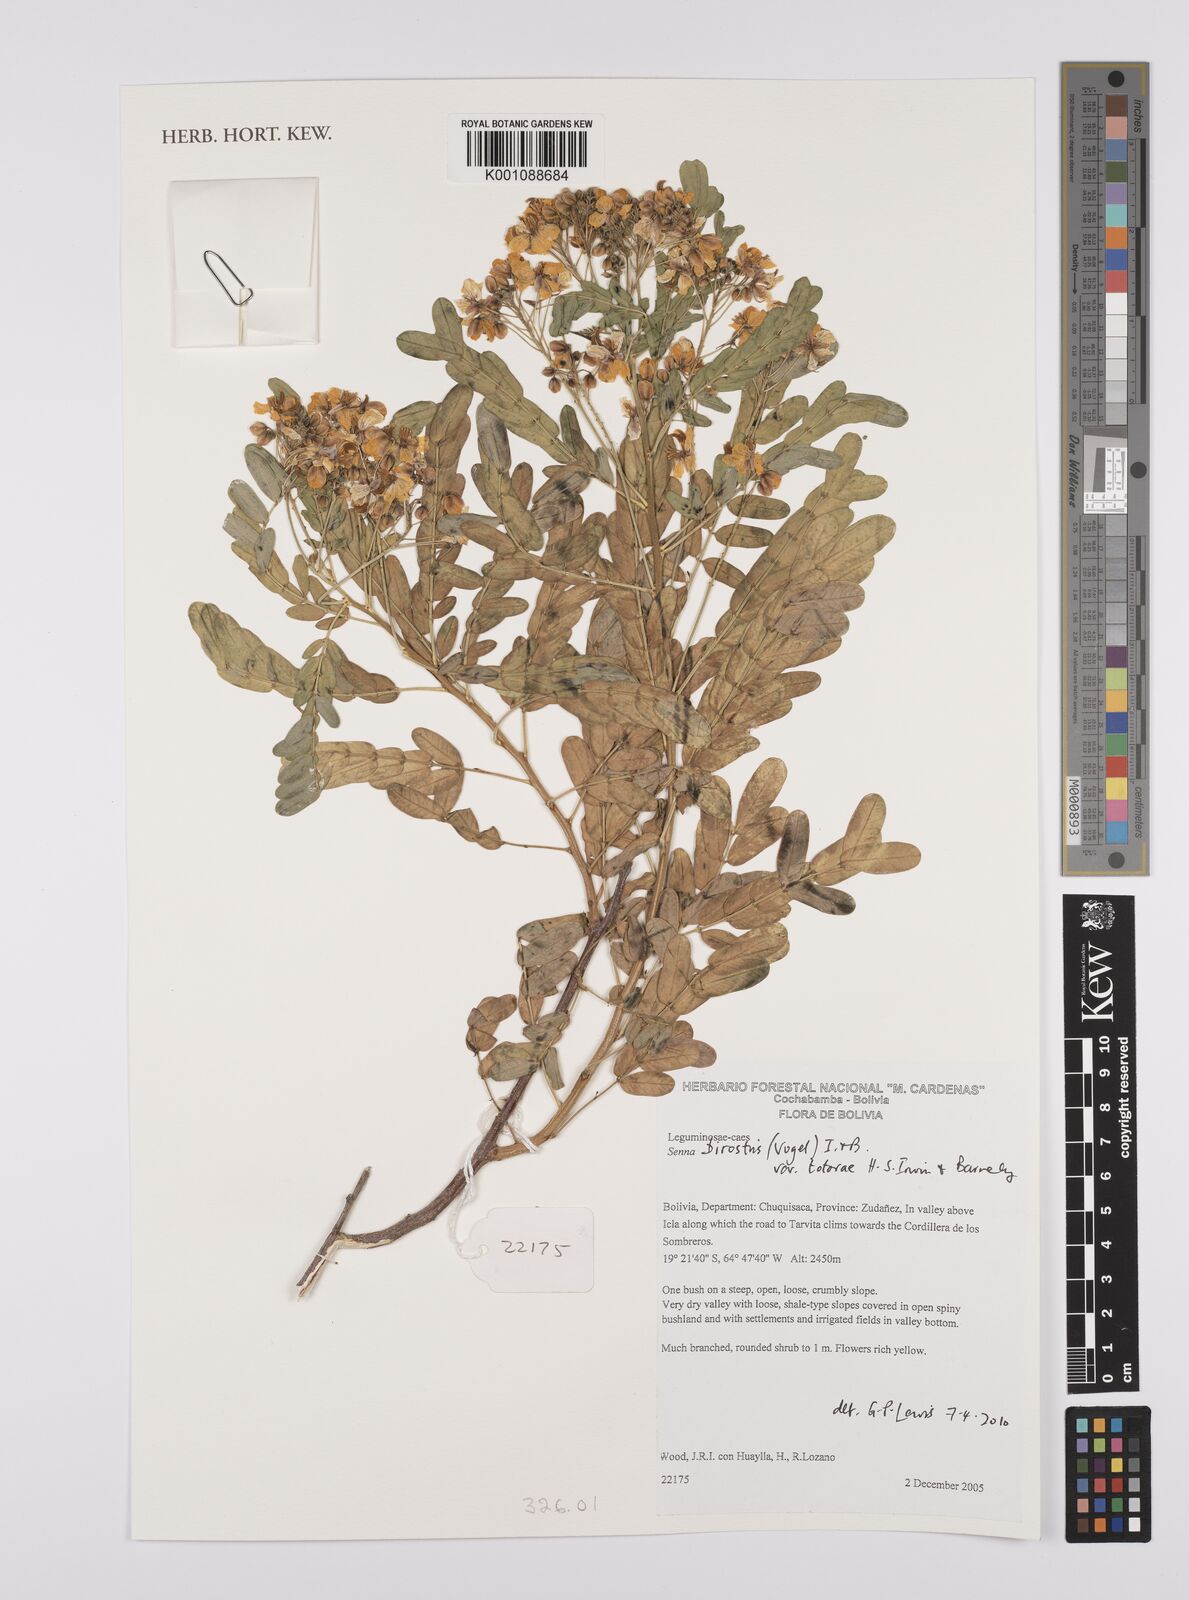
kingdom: Plantae
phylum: Tracheophyta
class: Magnoliopsida
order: Fabales
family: Fabaceae
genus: Senna
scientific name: Senna birostris
